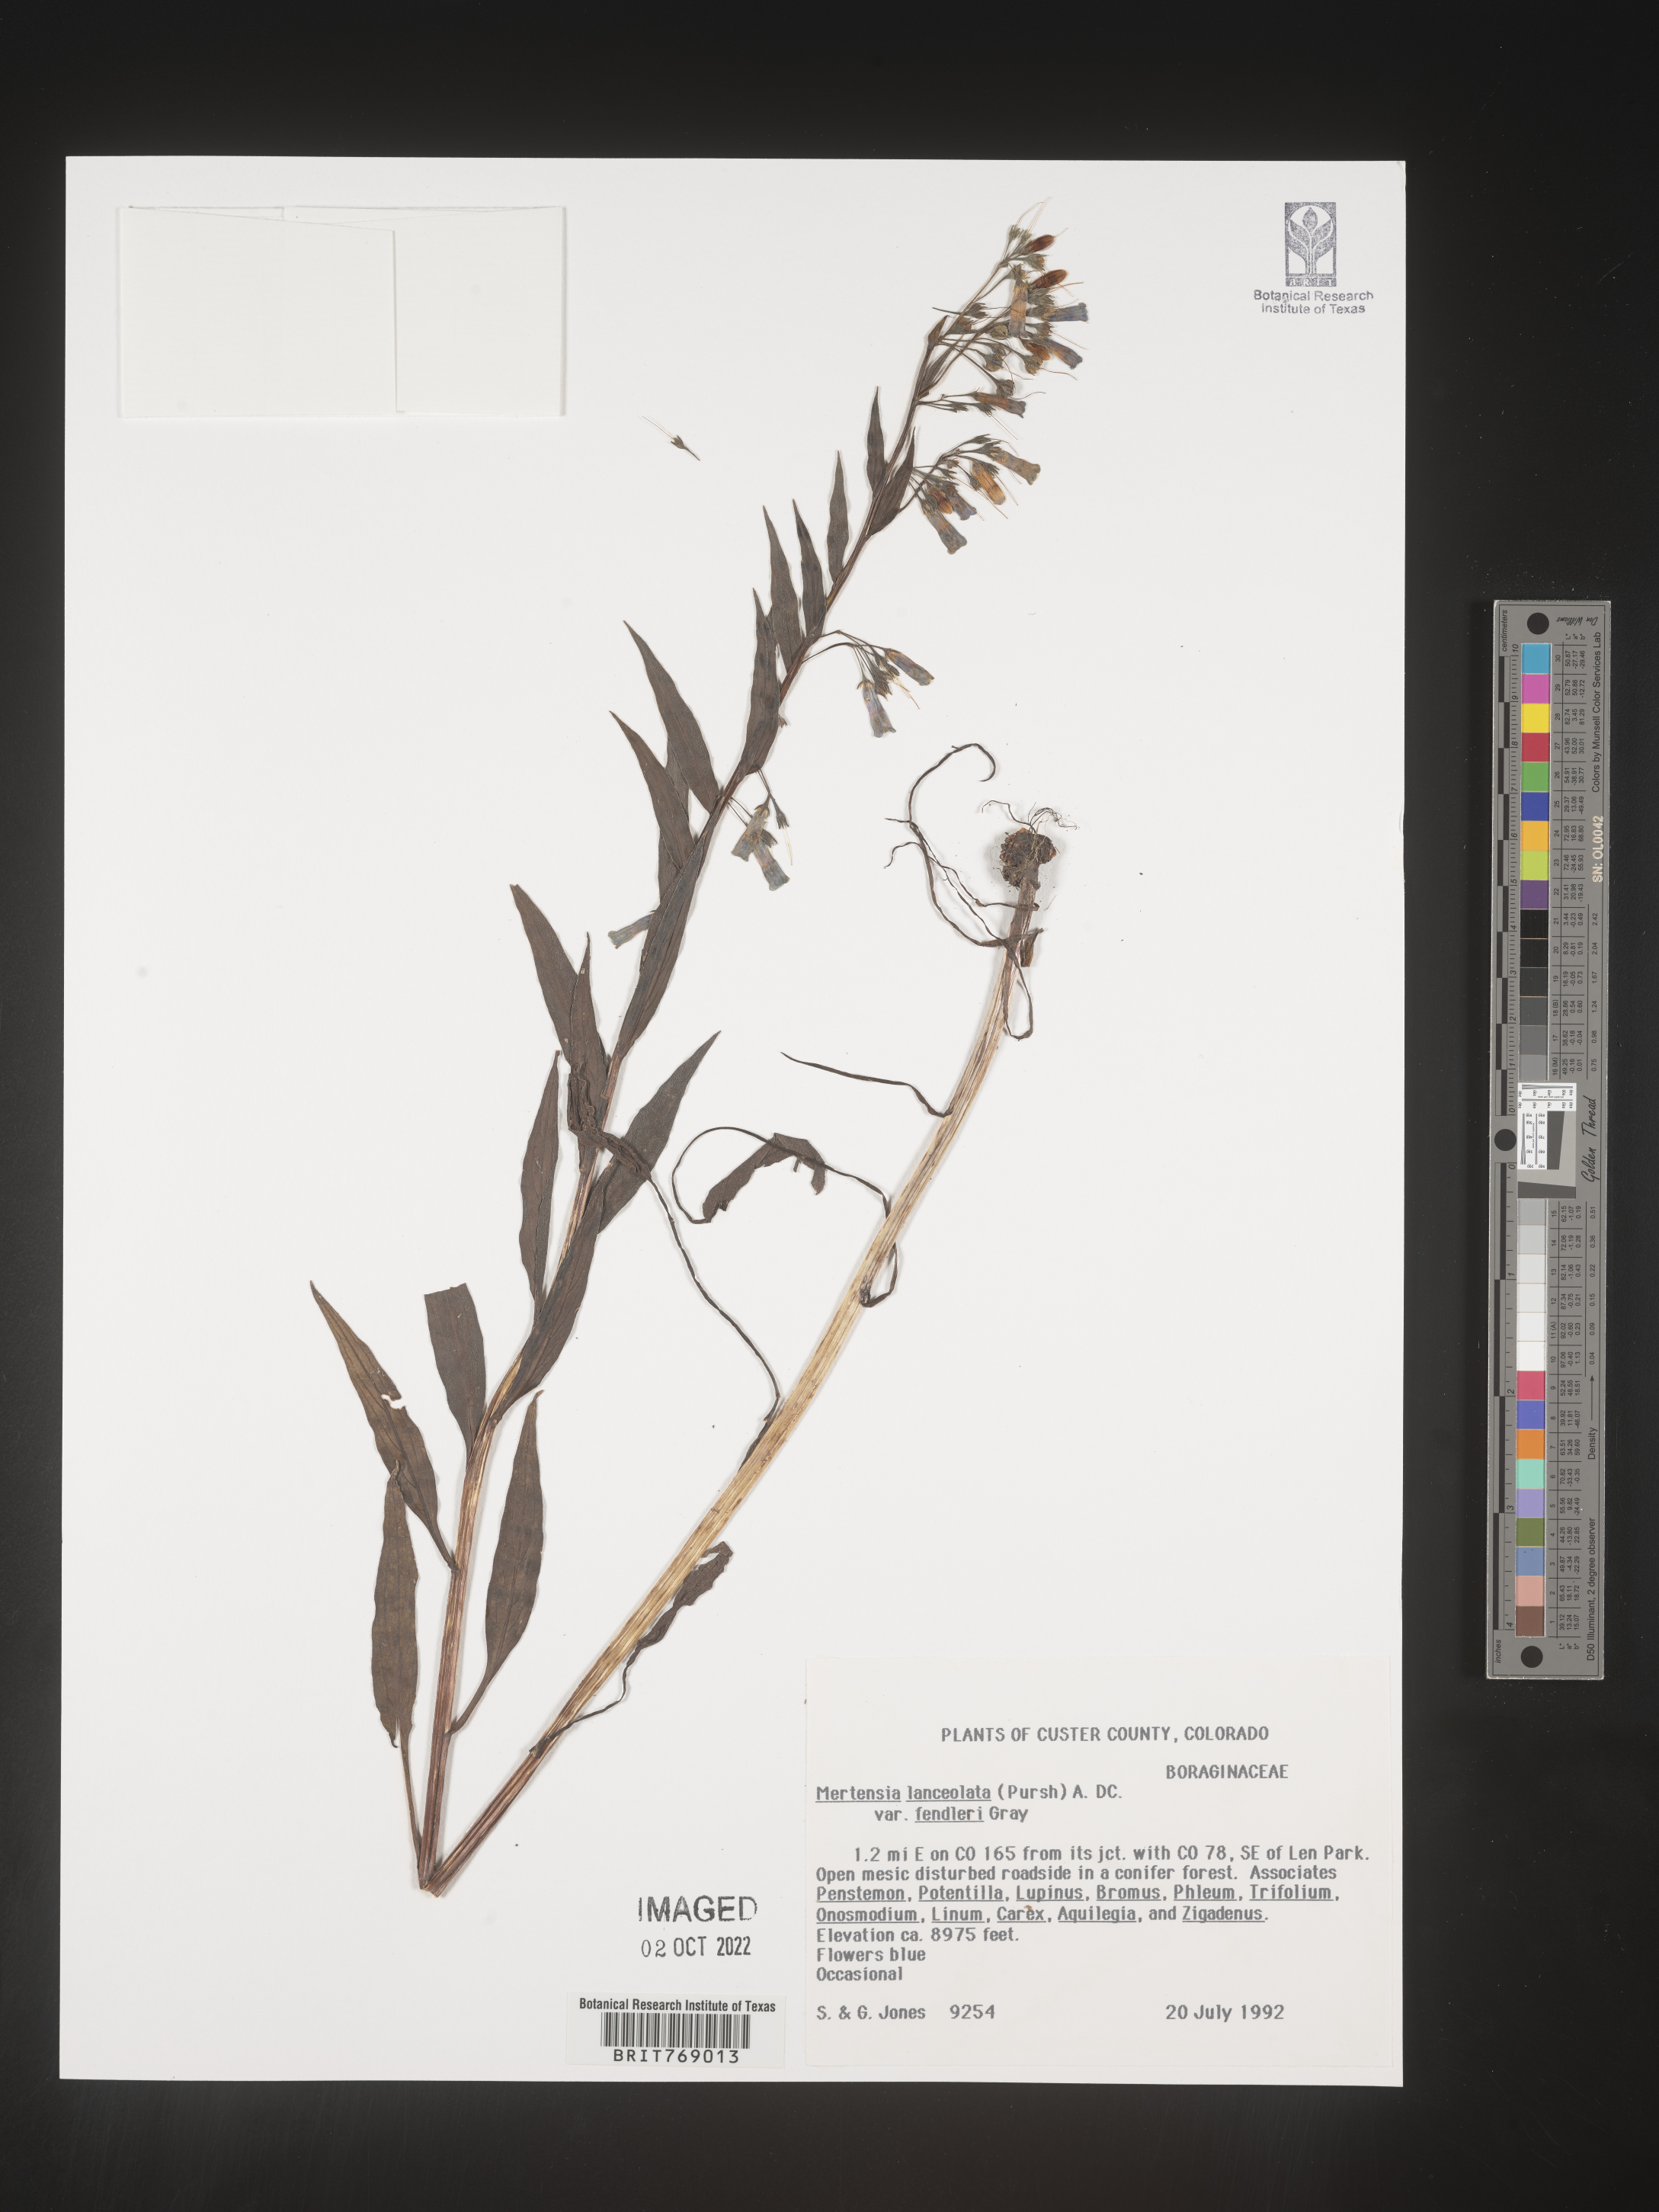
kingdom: Plantae
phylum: Tracheophyta
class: Magnoliopsida
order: Boraginales
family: Boraginaceae
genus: Mertensia
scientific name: Mertensia
